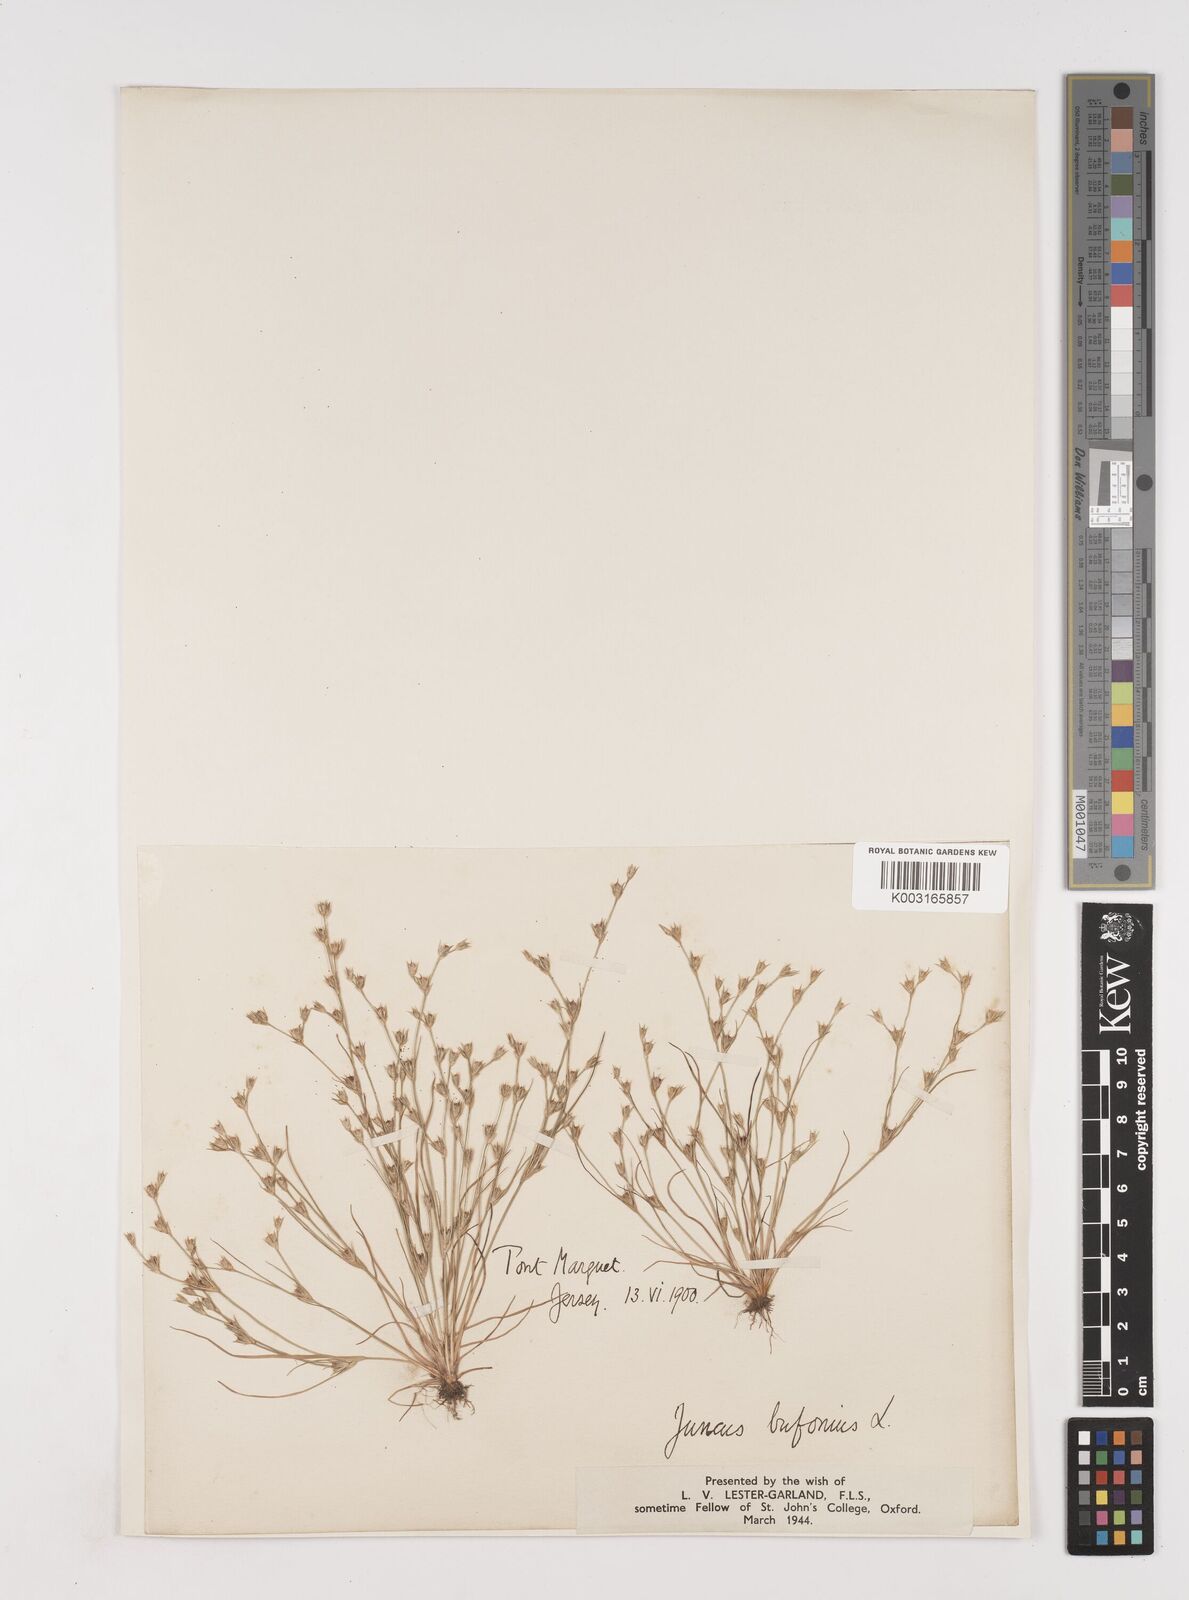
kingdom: Plantae
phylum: Tracheophyta
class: Liliopsida
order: Poales
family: Juncaceae
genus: Juncus
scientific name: Juncus bufonius
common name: Toad rush
